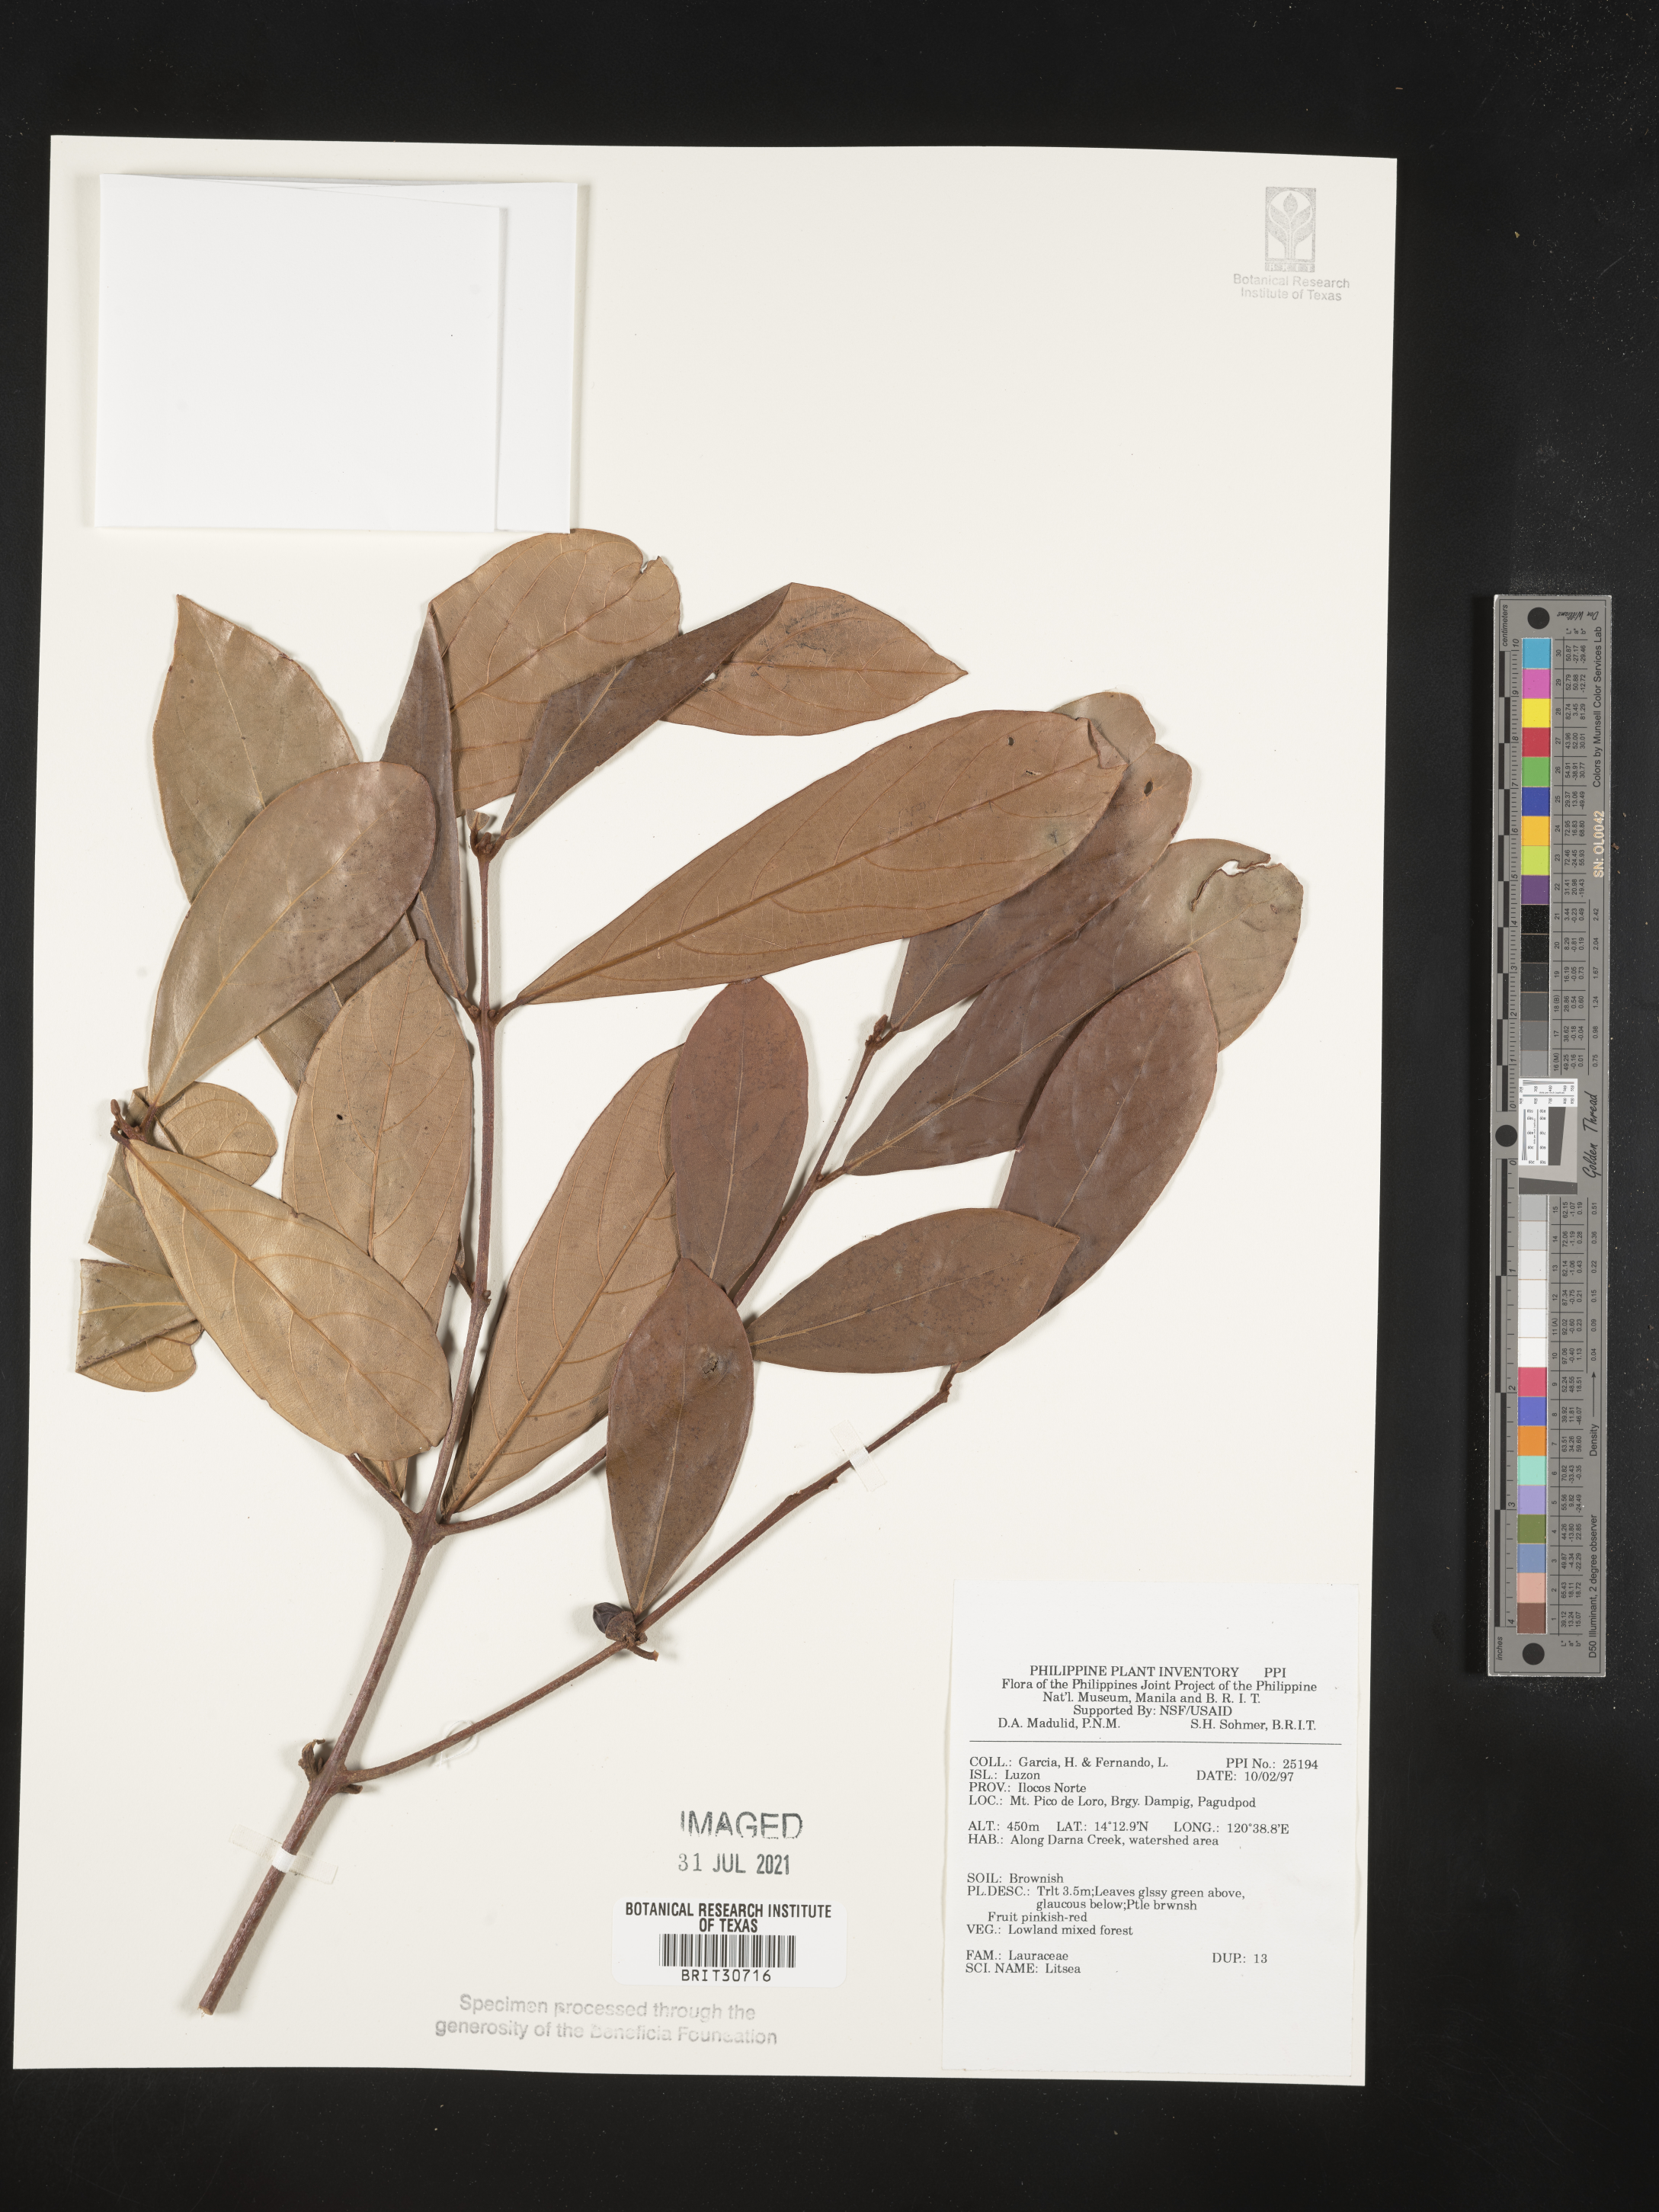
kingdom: Plantae
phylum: Tracheophyta
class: Magnoliopsida
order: Laurales
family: Lauraceae
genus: Litsea
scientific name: Litsea
